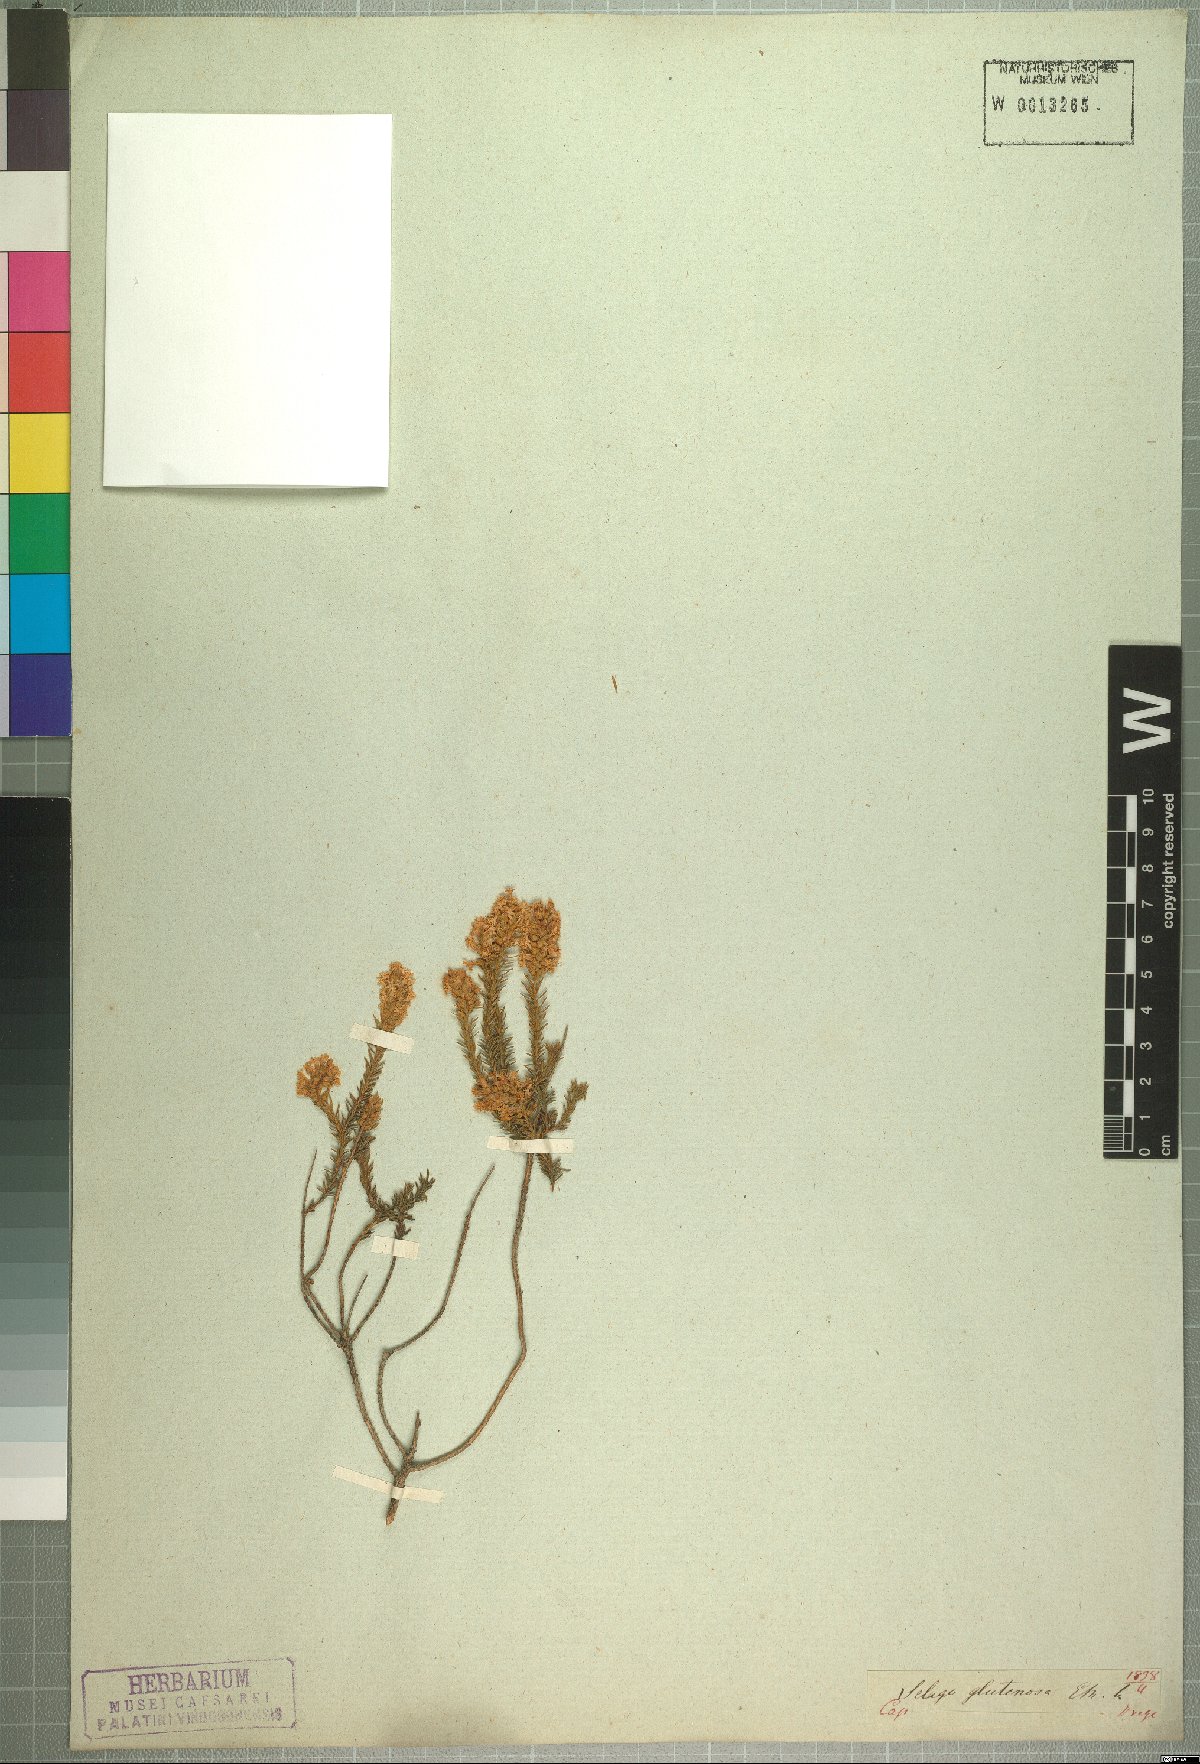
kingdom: Plantae
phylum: Tracheophyta
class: Magnoliopsida
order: Lamiales
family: Scrophulariaceae
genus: Selago
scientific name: Selago dregeana
